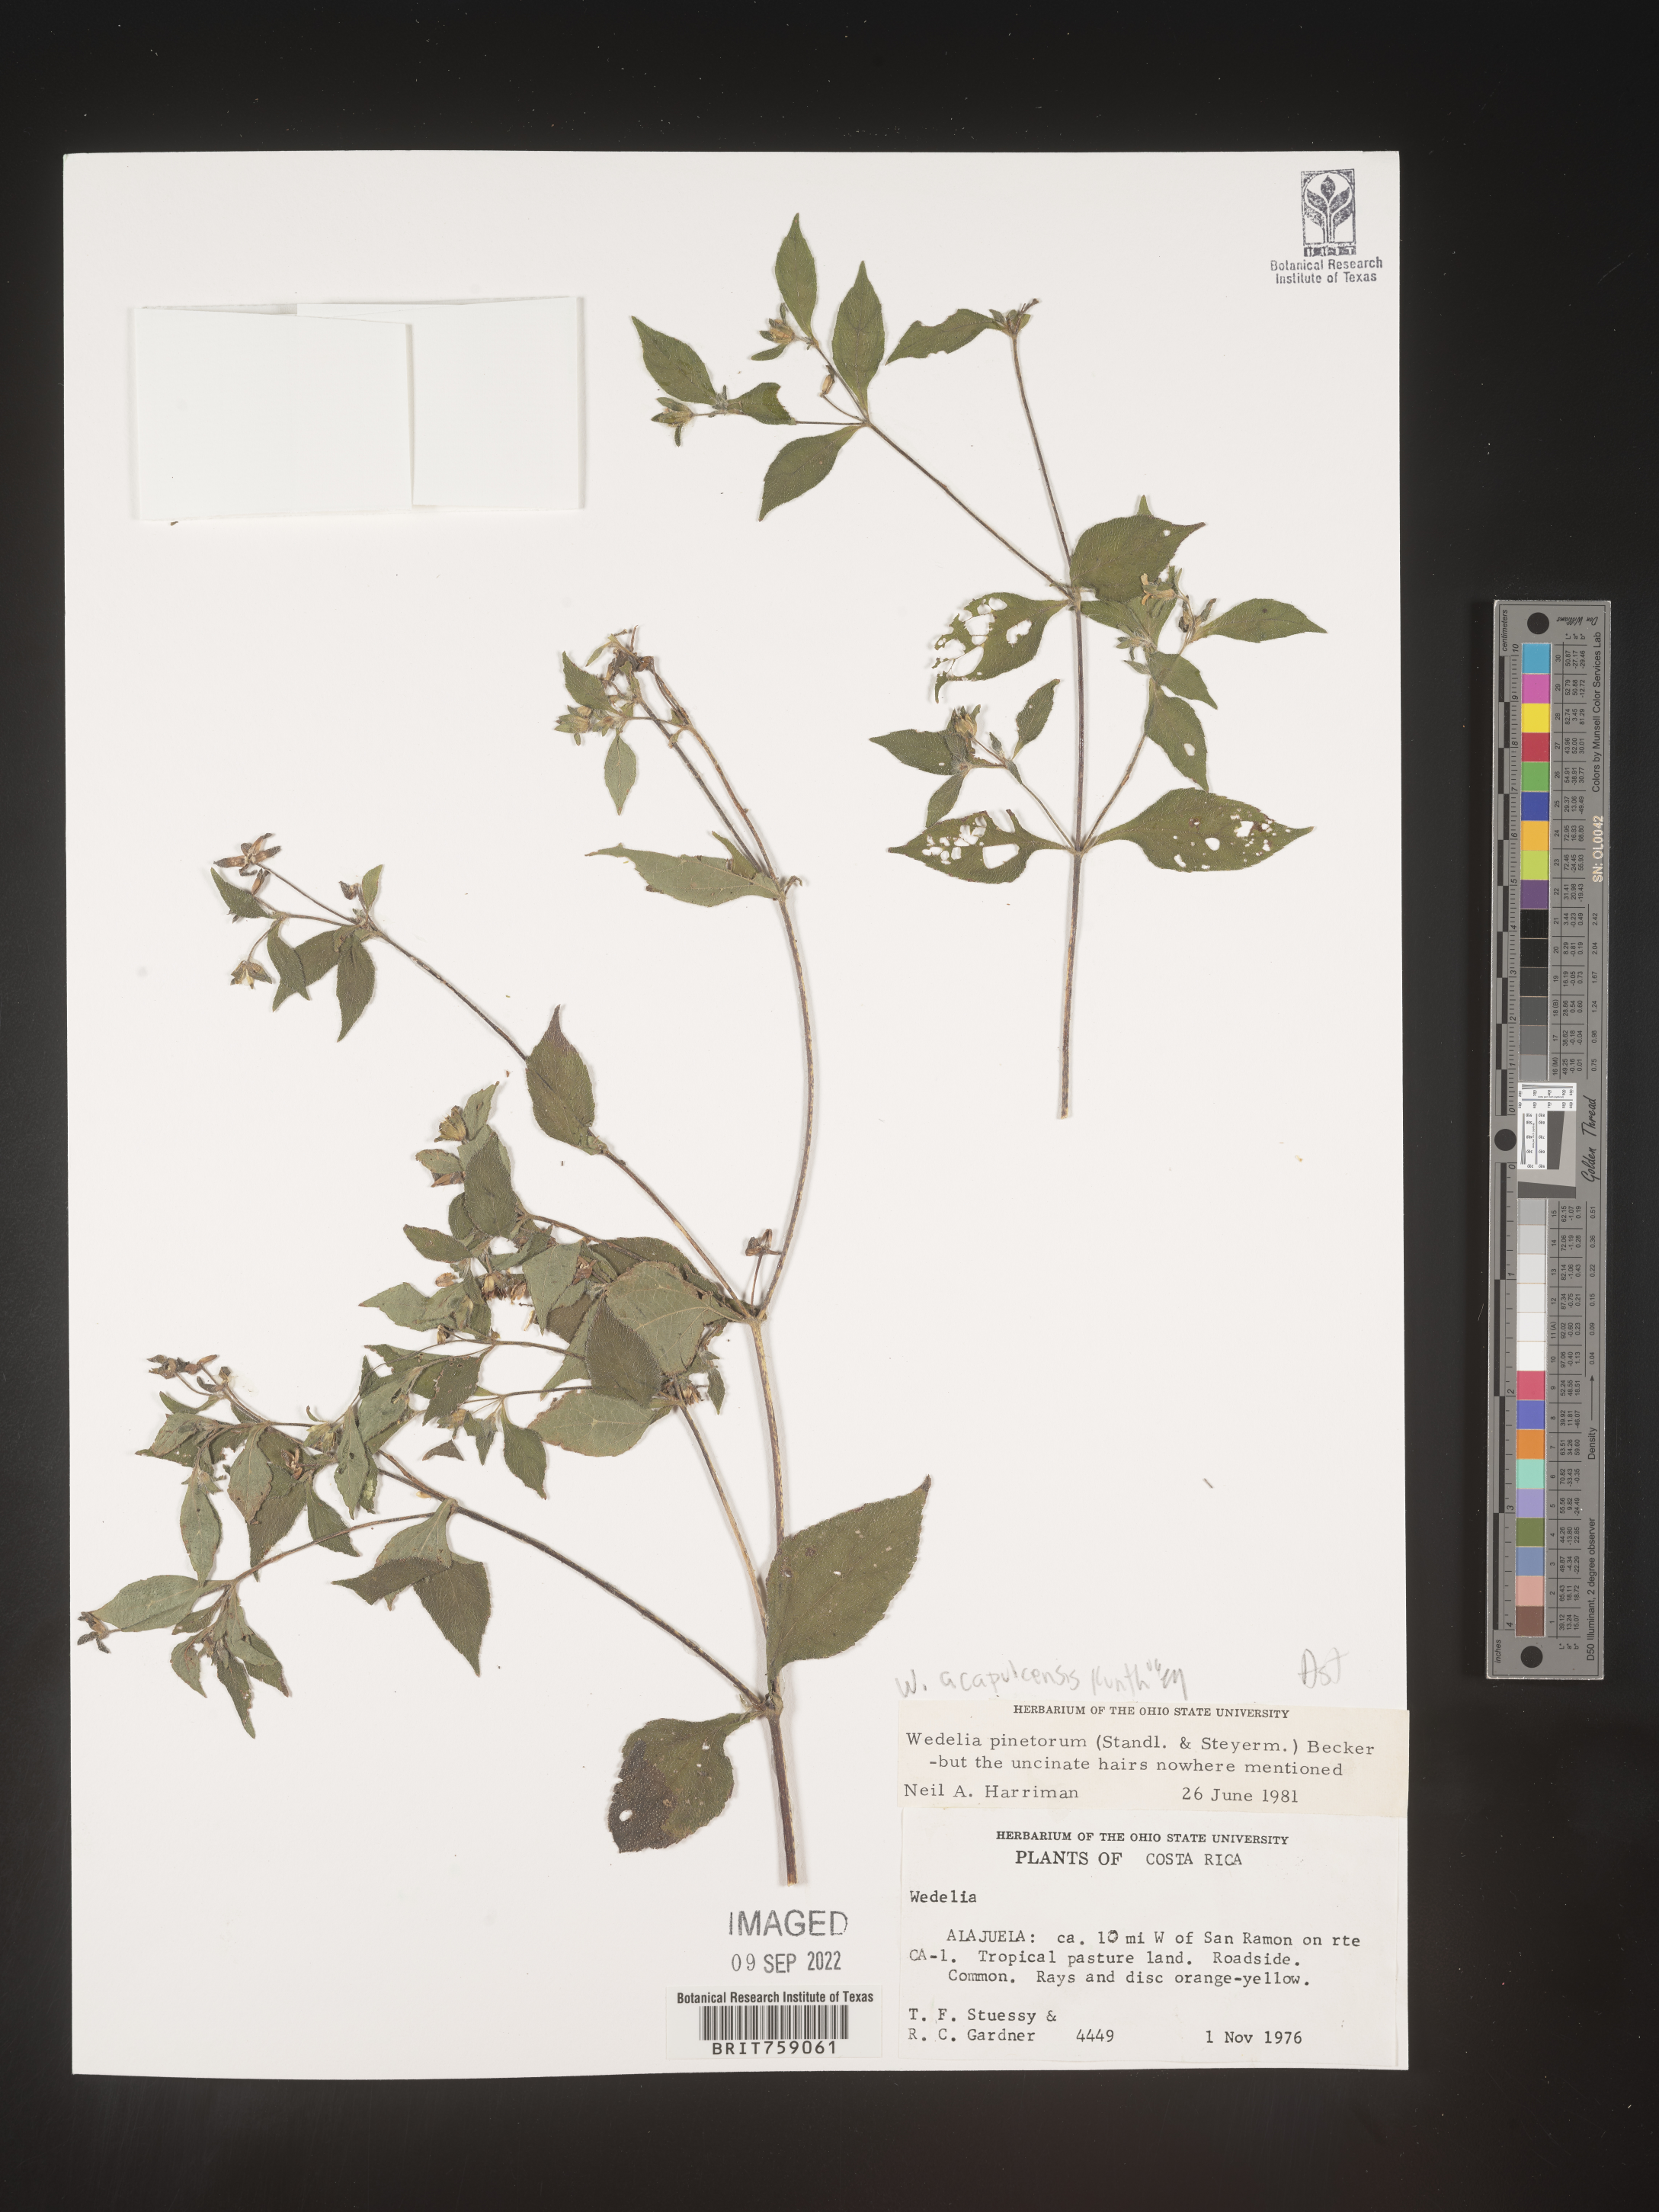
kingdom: Plantae
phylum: Tracheophyta
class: Magnoliopsida
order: Asterales
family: Asteraceae
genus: Wedelia
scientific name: Wedelia
